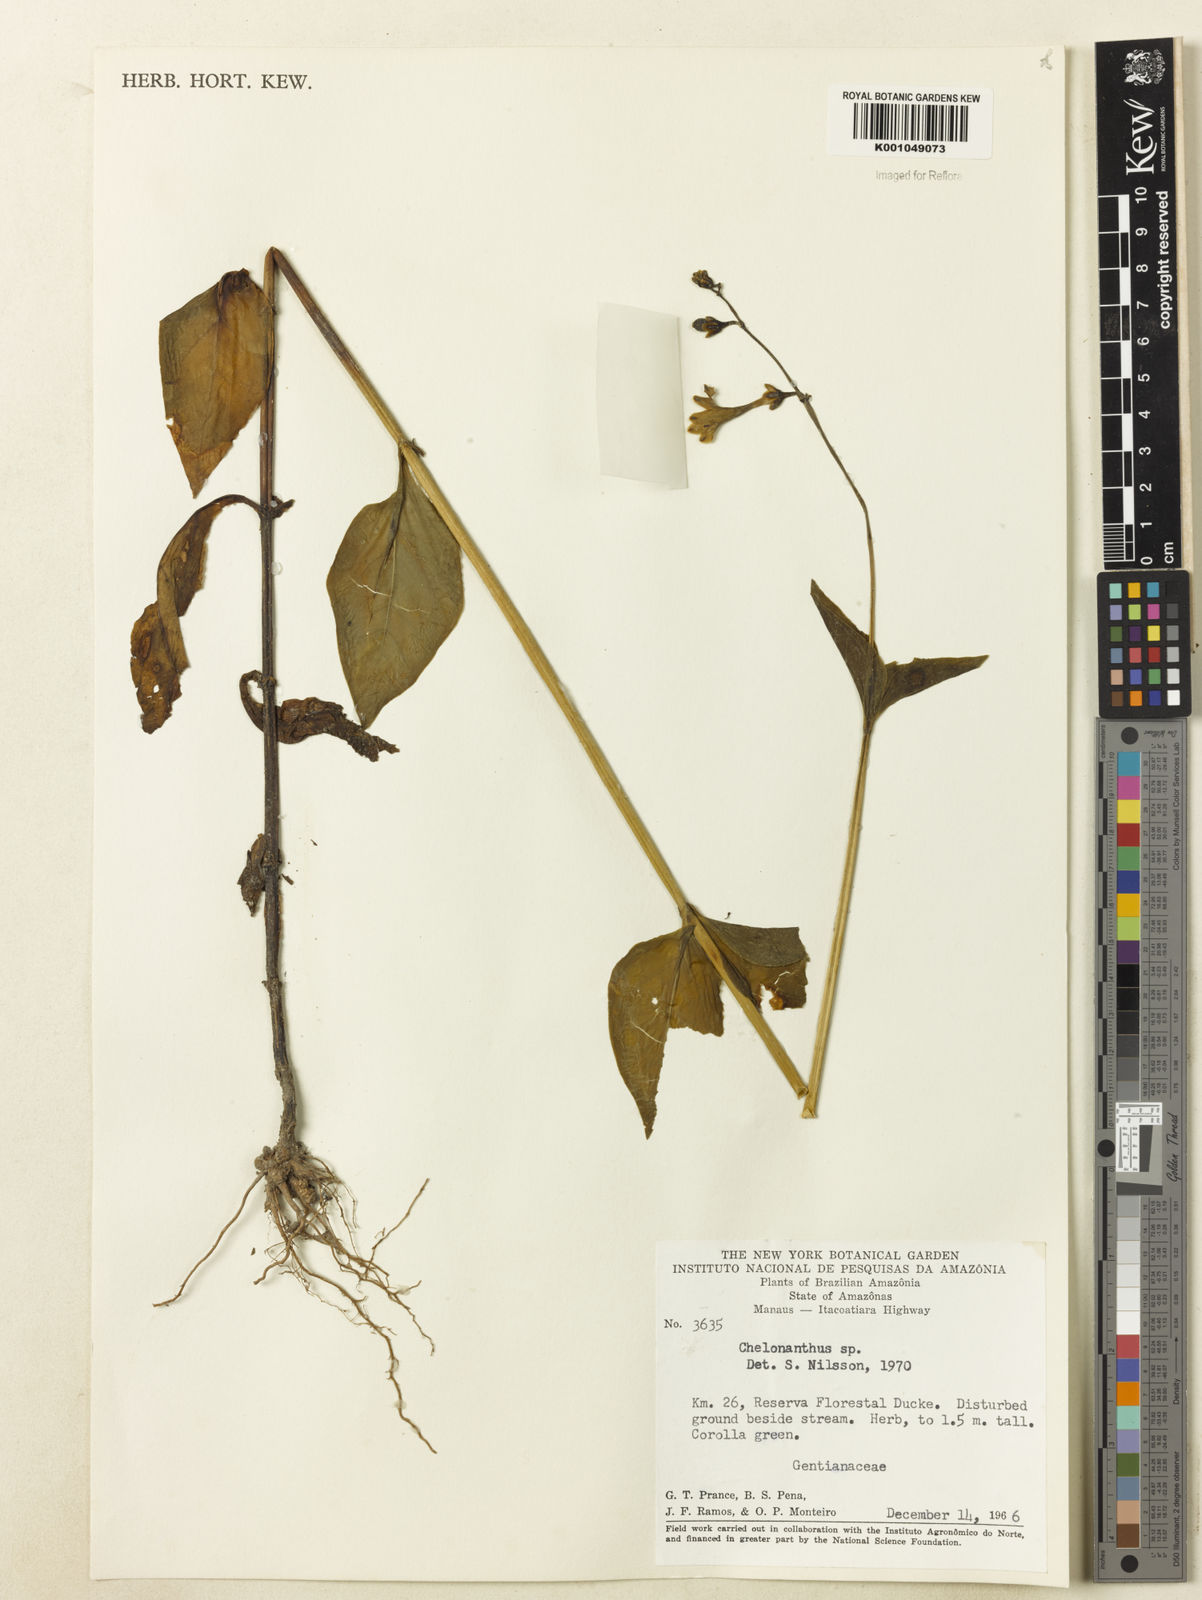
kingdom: Plantae
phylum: Tracheophyta
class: Magnoliopsida
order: Gentianales
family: Gentianaceae
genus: Chelonanthus
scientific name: Chelonanthus
